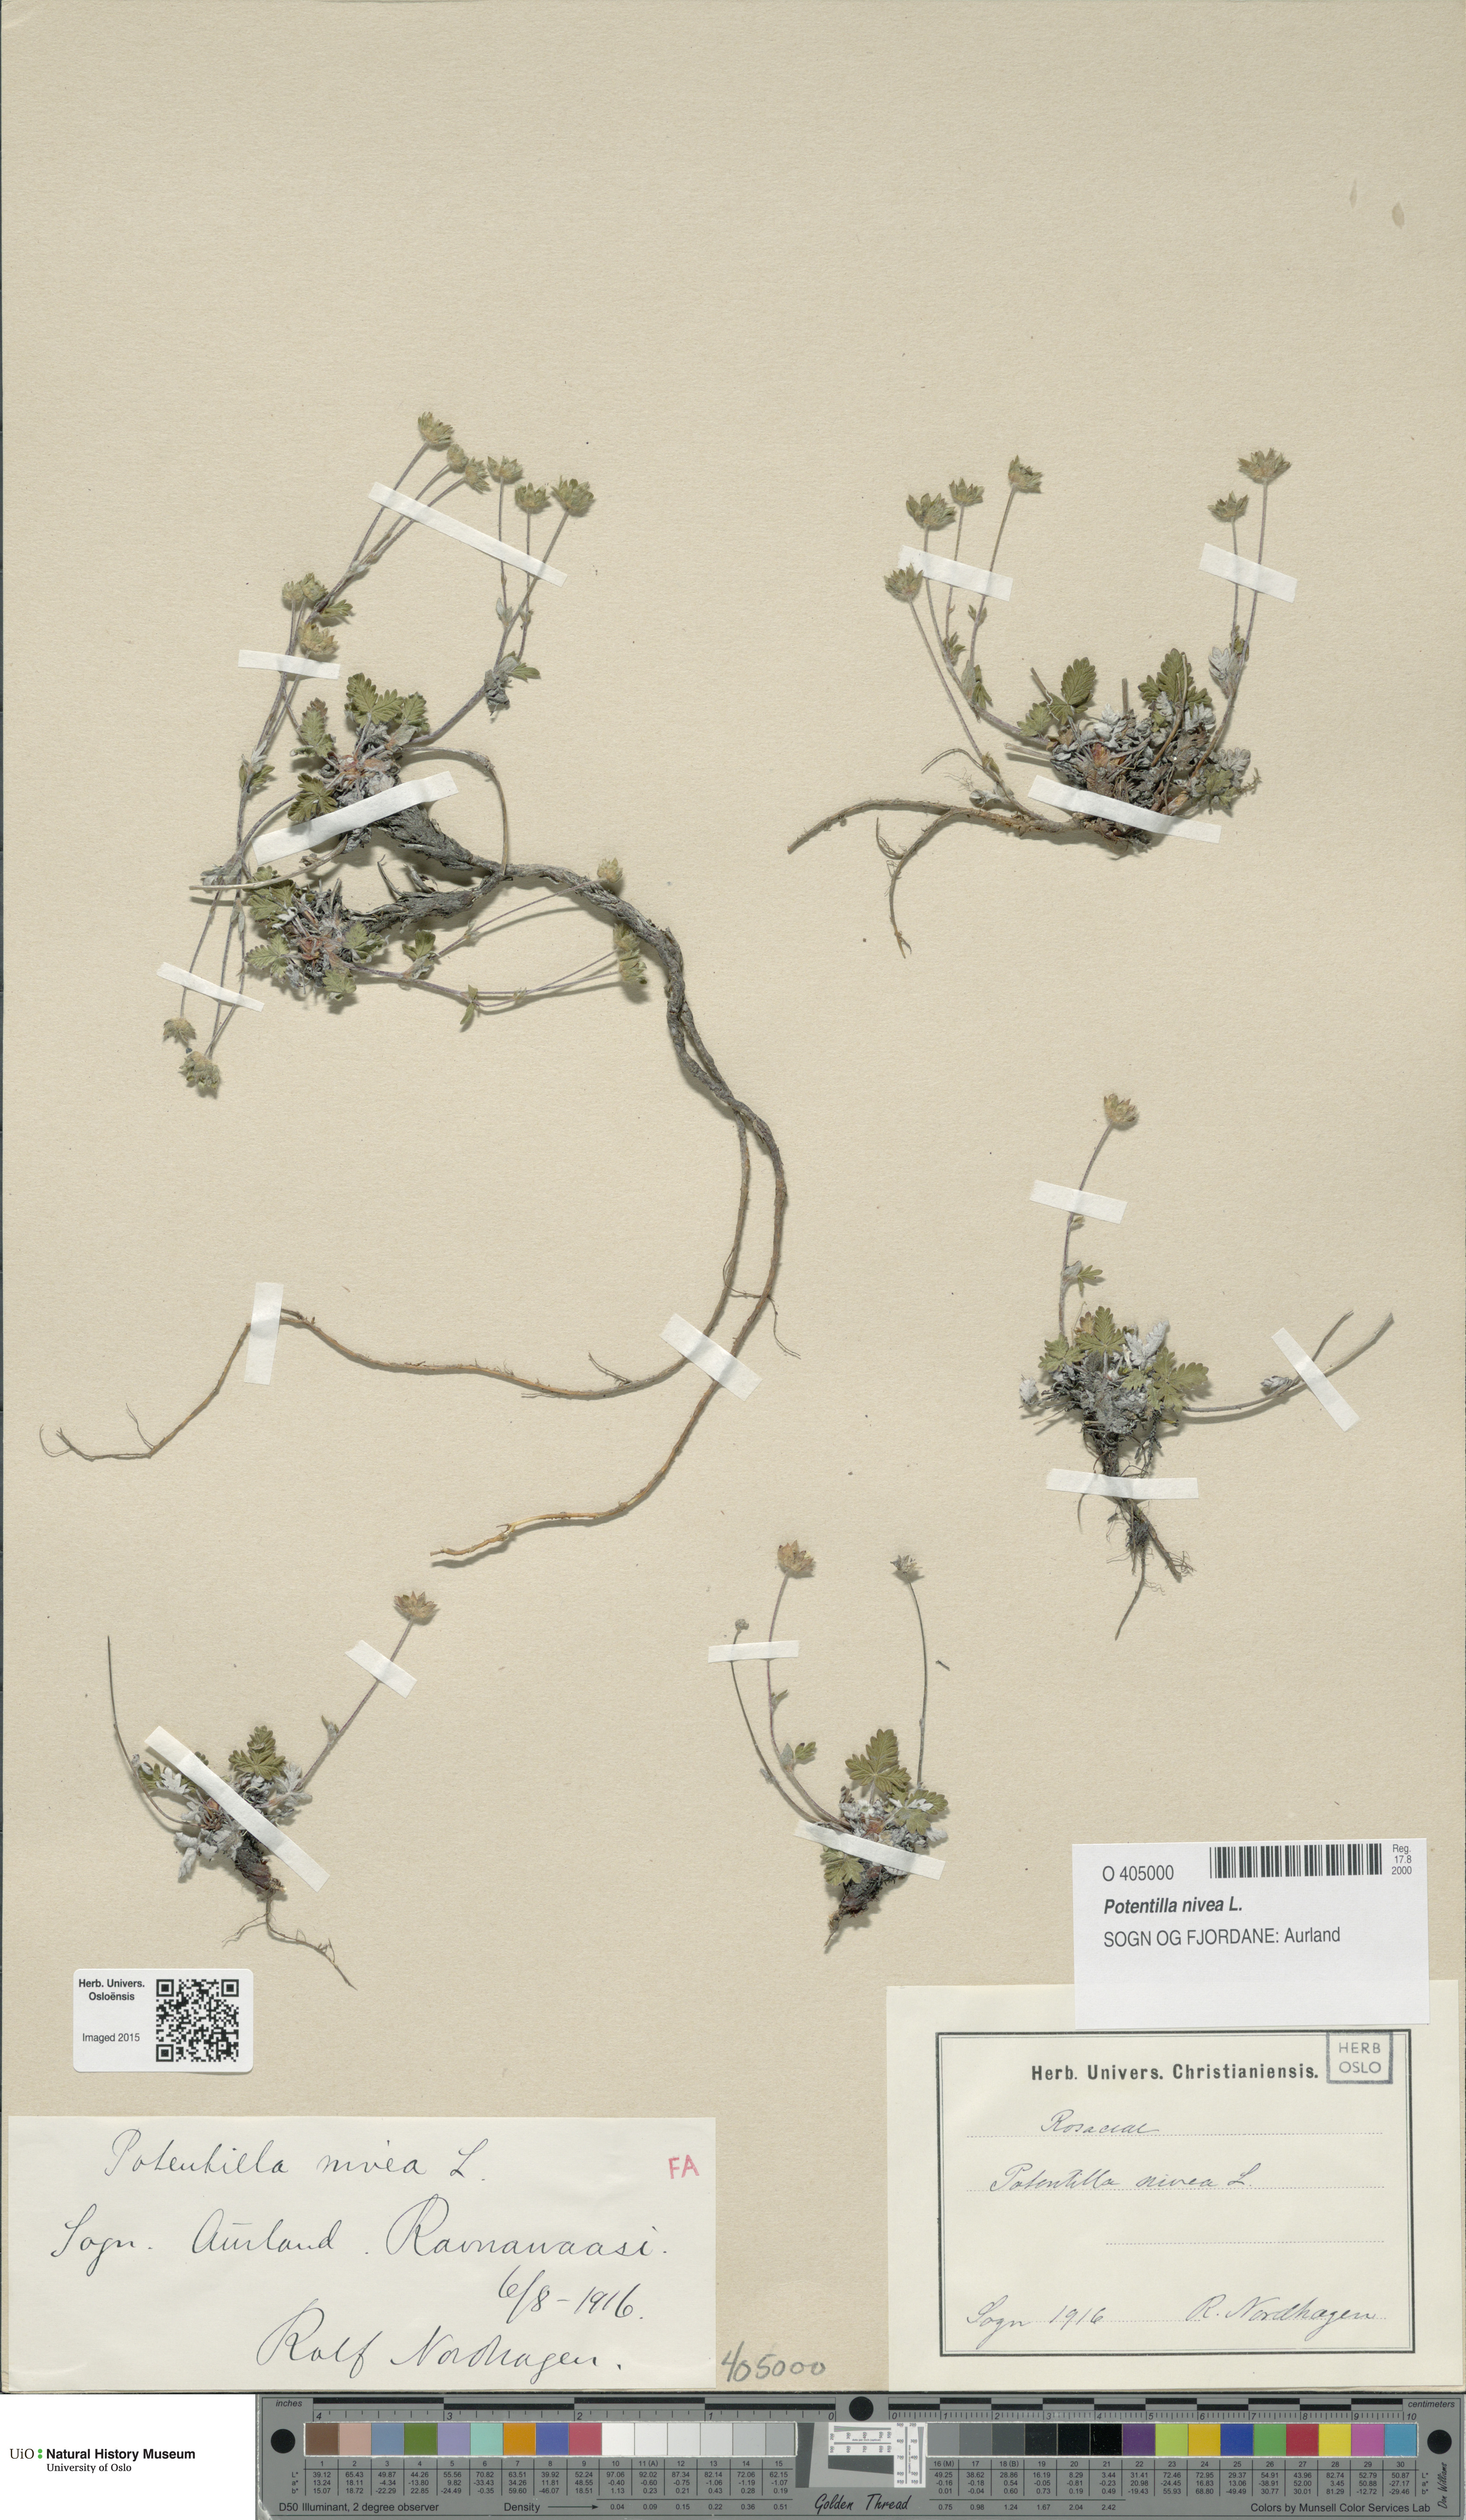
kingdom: Plantae
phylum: Tracheophyta
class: Magnoliopsida
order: Rosales
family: Rosaceae
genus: Potentilla
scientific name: Potentilla arenosa
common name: Bluff cinquefoil
